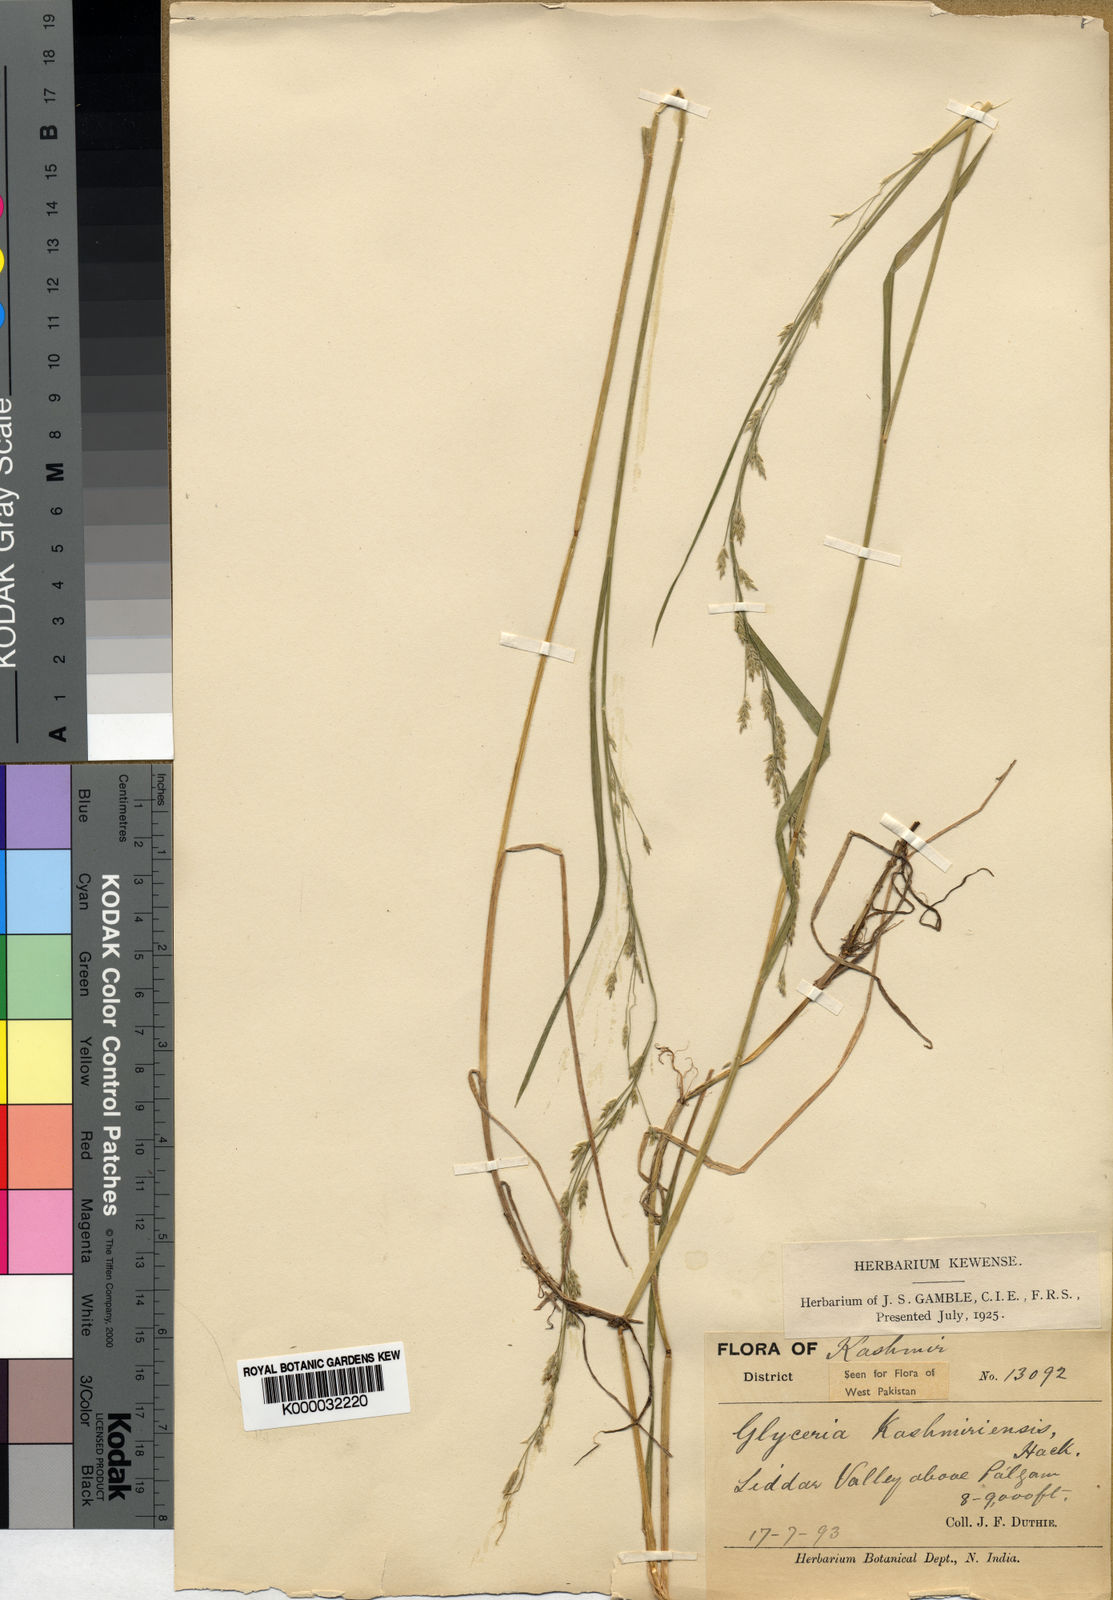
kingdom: Plantae
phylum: Tracheophyta
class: Liliopsida
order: Poales
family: Poaceae
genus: Glyceria
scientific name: Glyceria tonglensis
